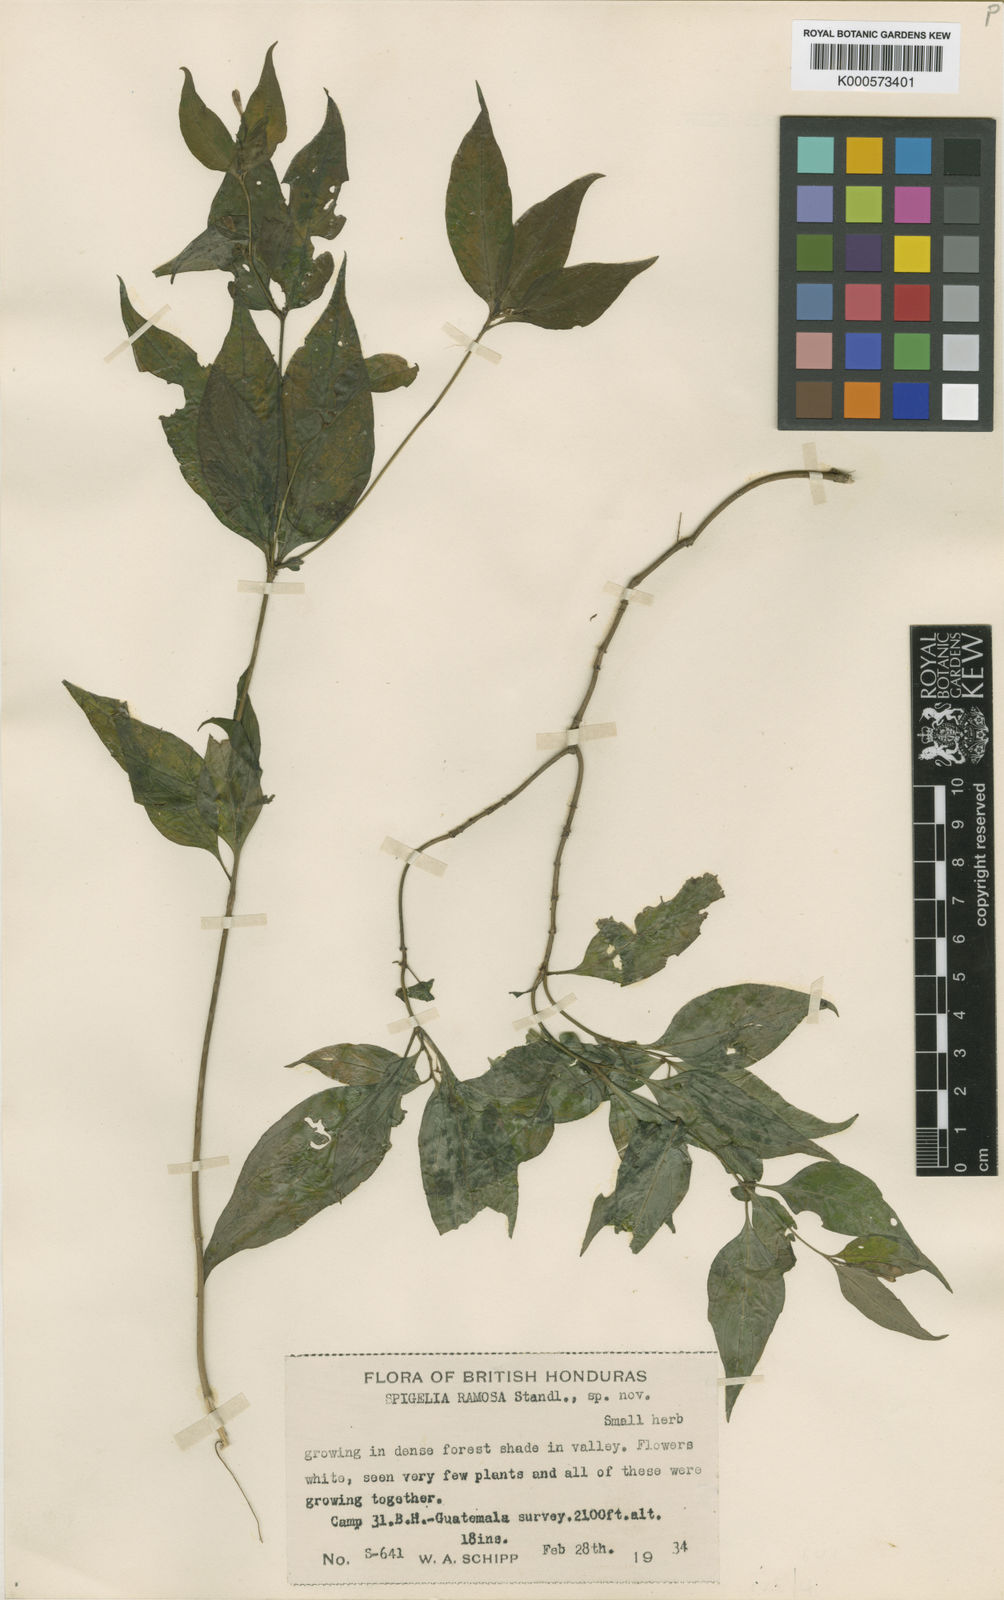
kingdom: Plantae
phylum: Tracheophyta
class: Magnoliopsida
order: Gentianales
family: Loganiaceae
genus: Spigelia
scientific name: Spigelia
